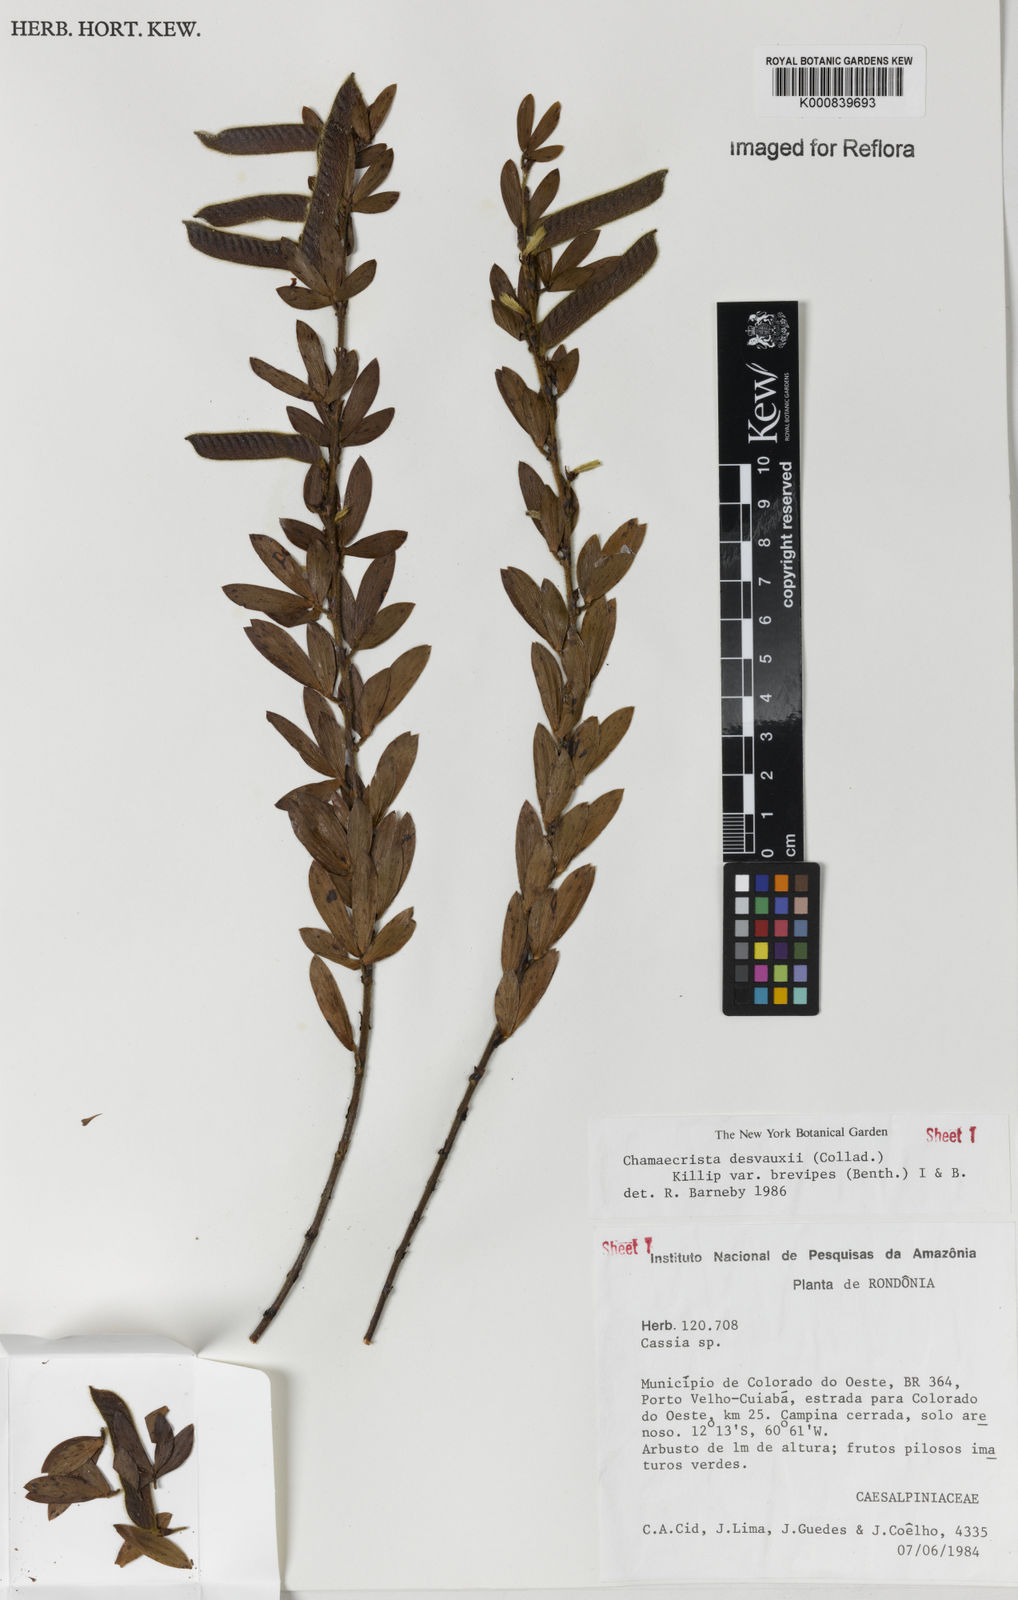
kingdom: Plantae
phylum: Tracheophyta
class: Magnoliopsida
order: Fabales
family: Fabaceae
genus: Chamaecrista
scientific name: Chamaecrista desvauxii
